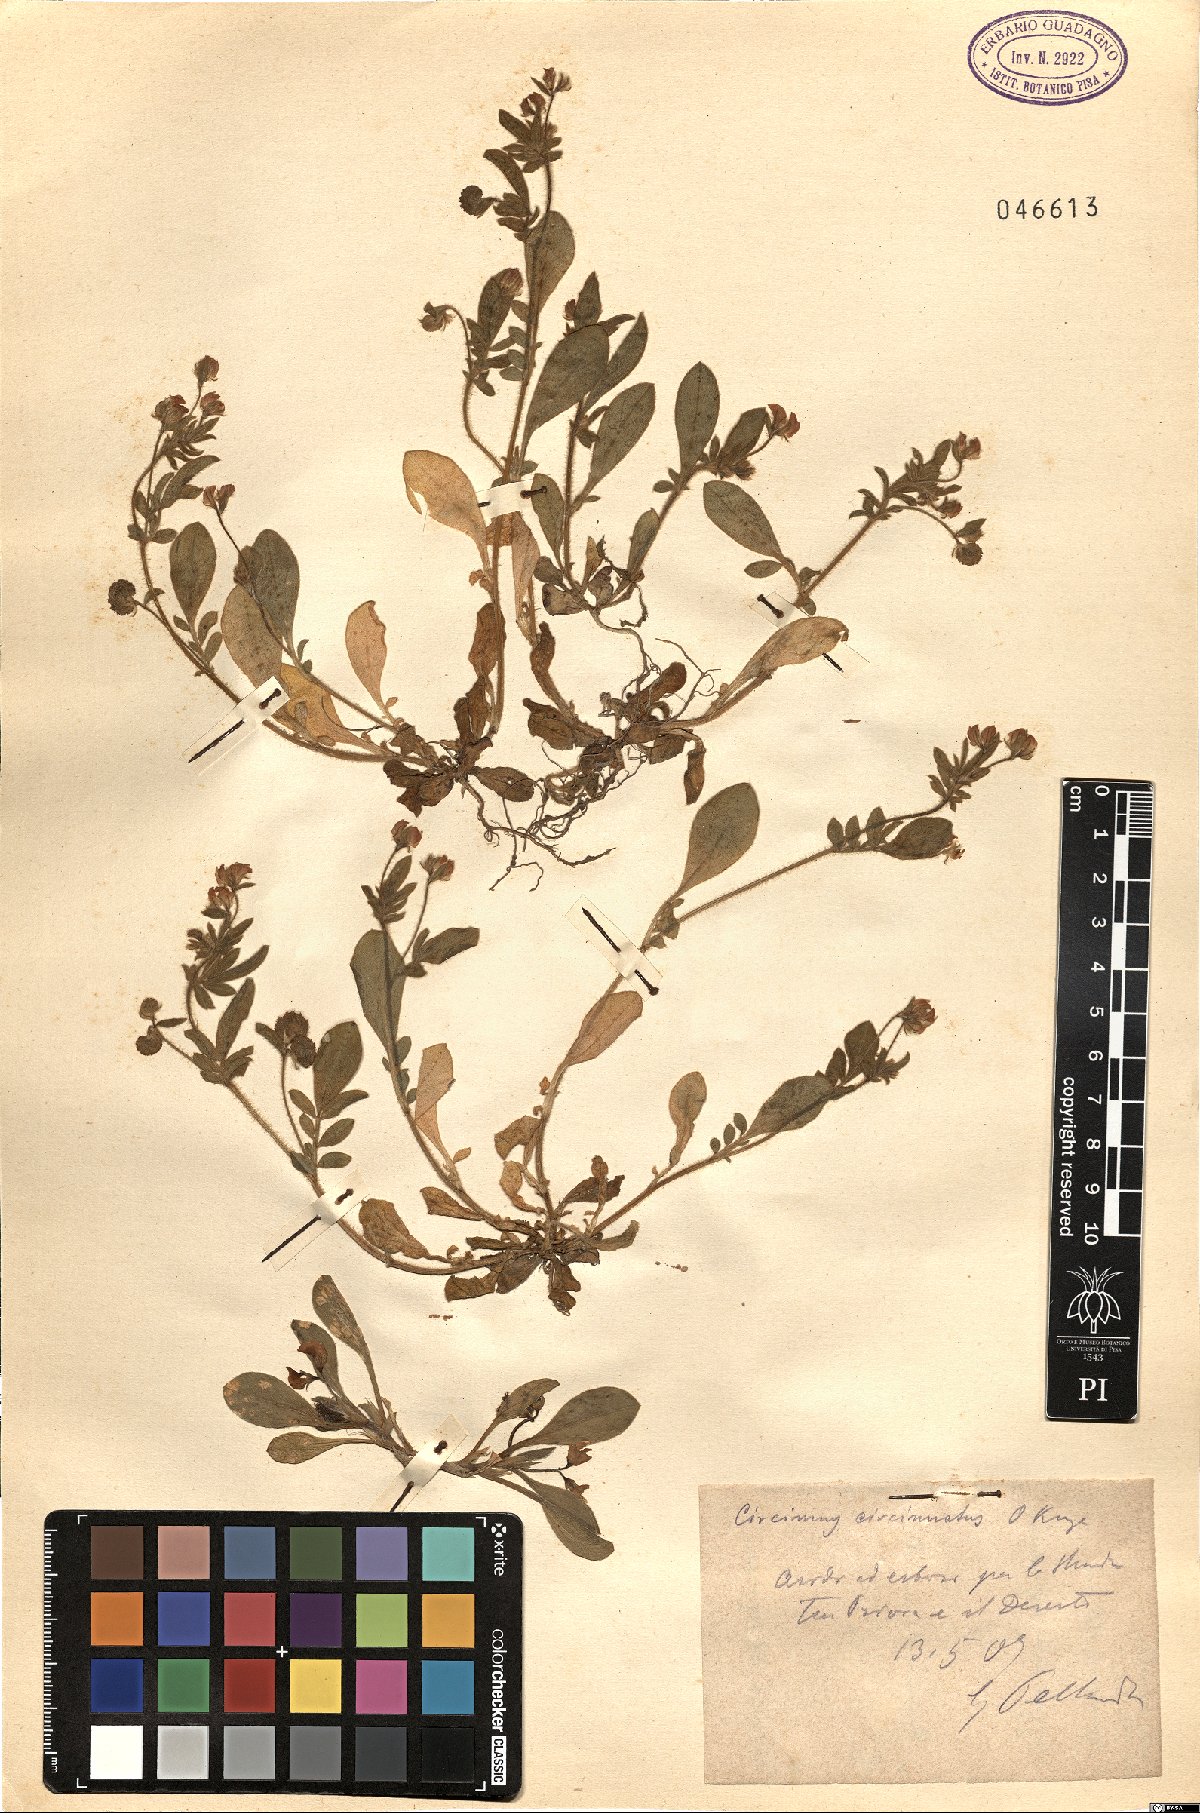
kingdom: Plantae
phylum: Tracheophyta
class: Magnoliopsida
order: Fabales
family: Fabaceae
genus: Circinus
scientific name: Circinus circinatus
